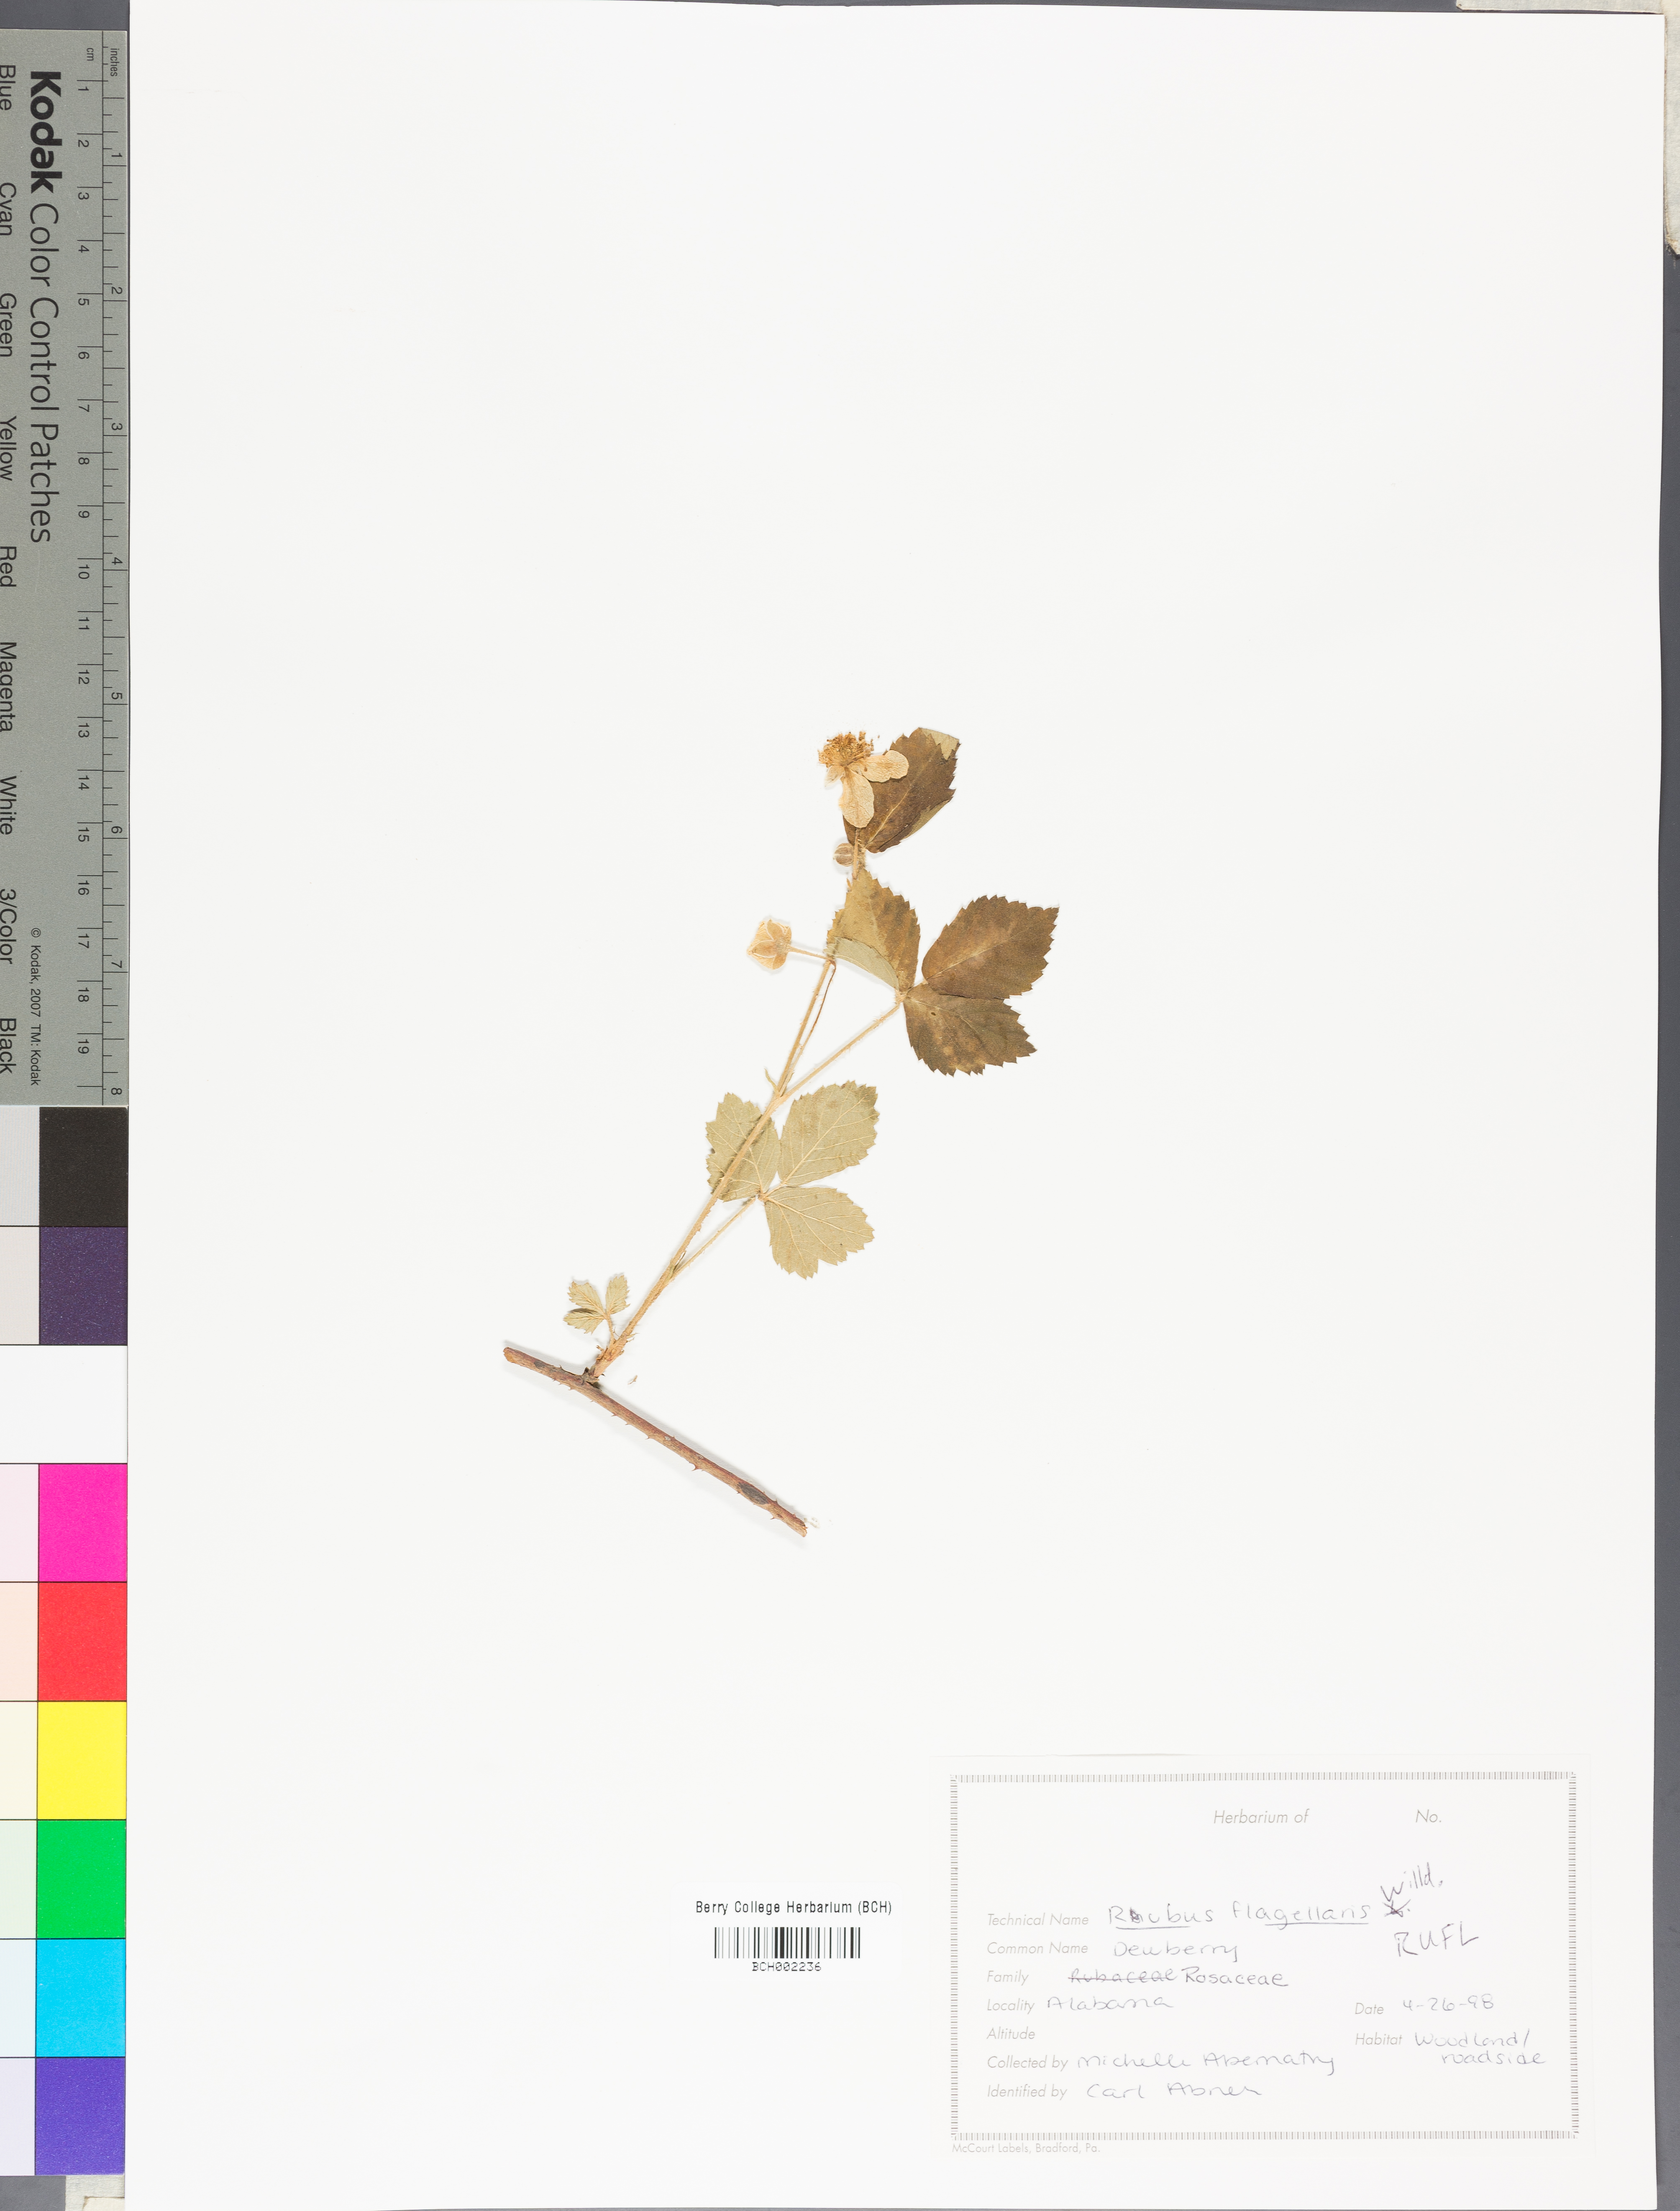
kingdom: Plantae
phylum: Tracheophyta
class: Magnoliopsida
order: Rosales
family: Rosaceae
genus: Rubus
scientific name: Rubus flagellaris
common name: American dewberry
